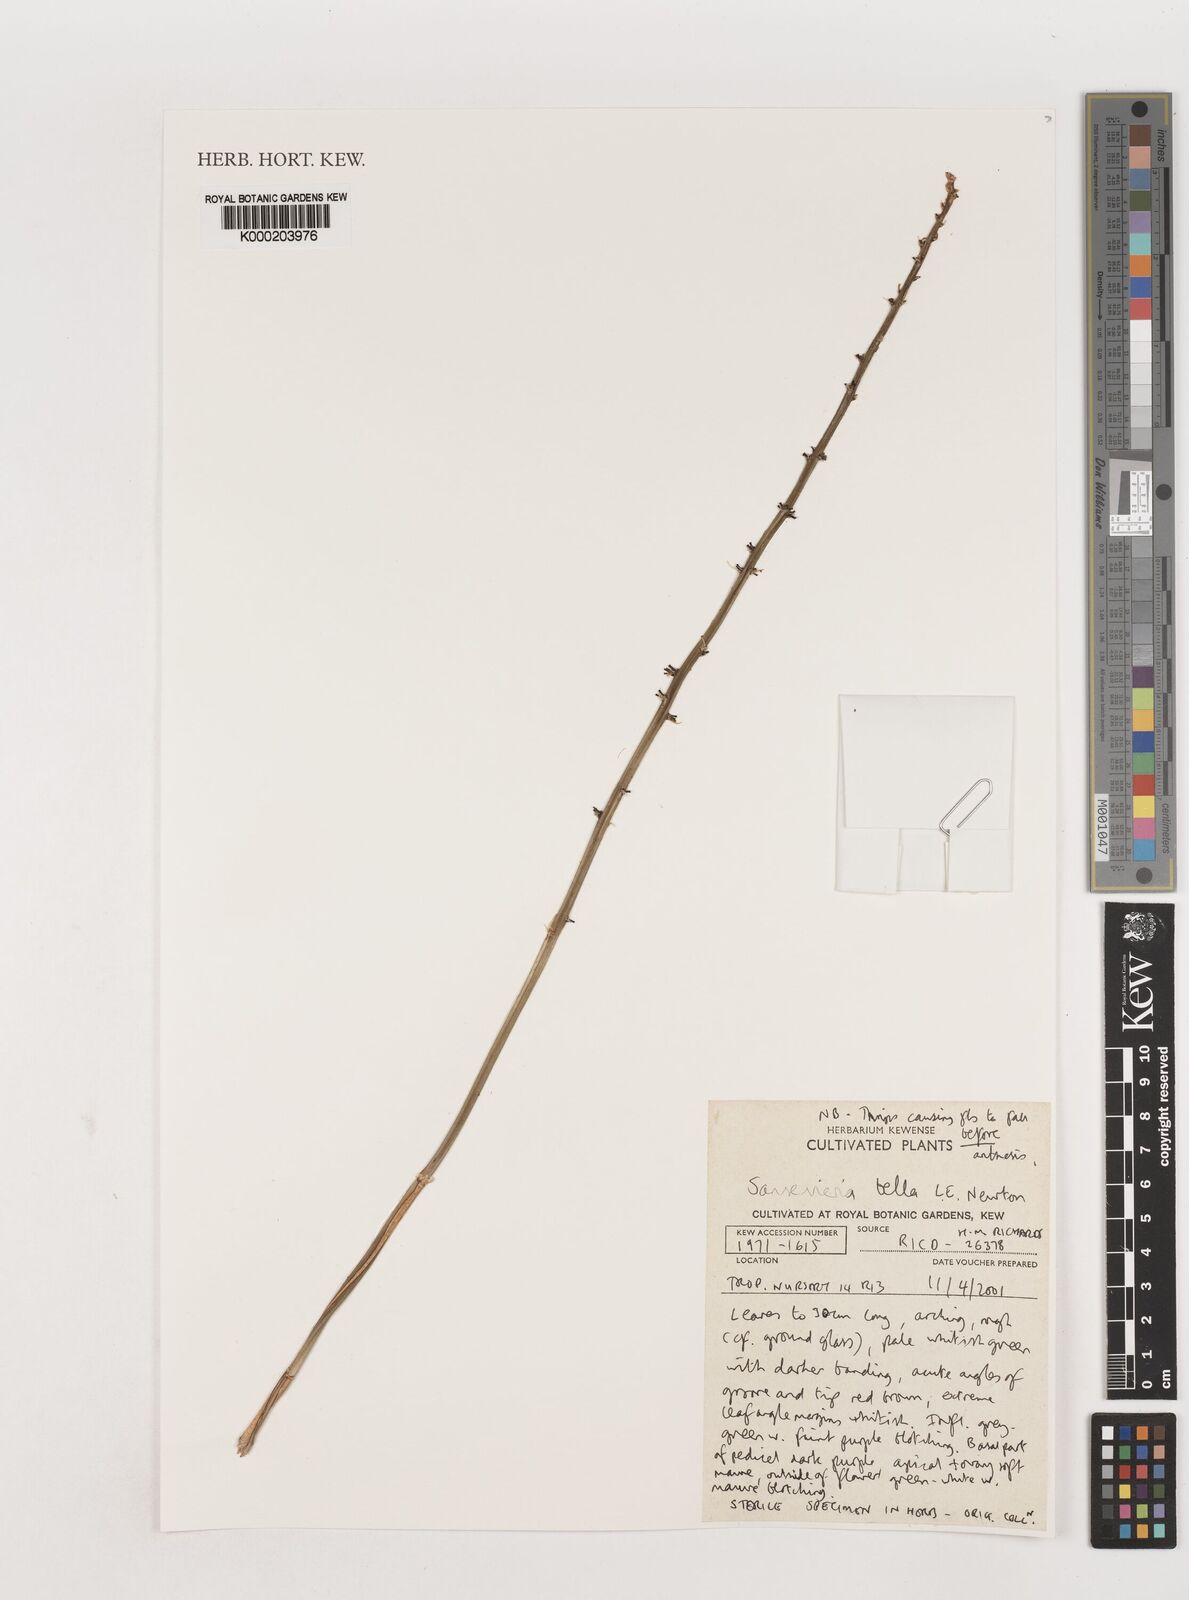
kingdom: Plantae
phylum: Tracheophyta
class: Liliopsida
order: Asparagales
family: Asparagaceae
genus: Dracaena
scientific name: Dracaena neobella
